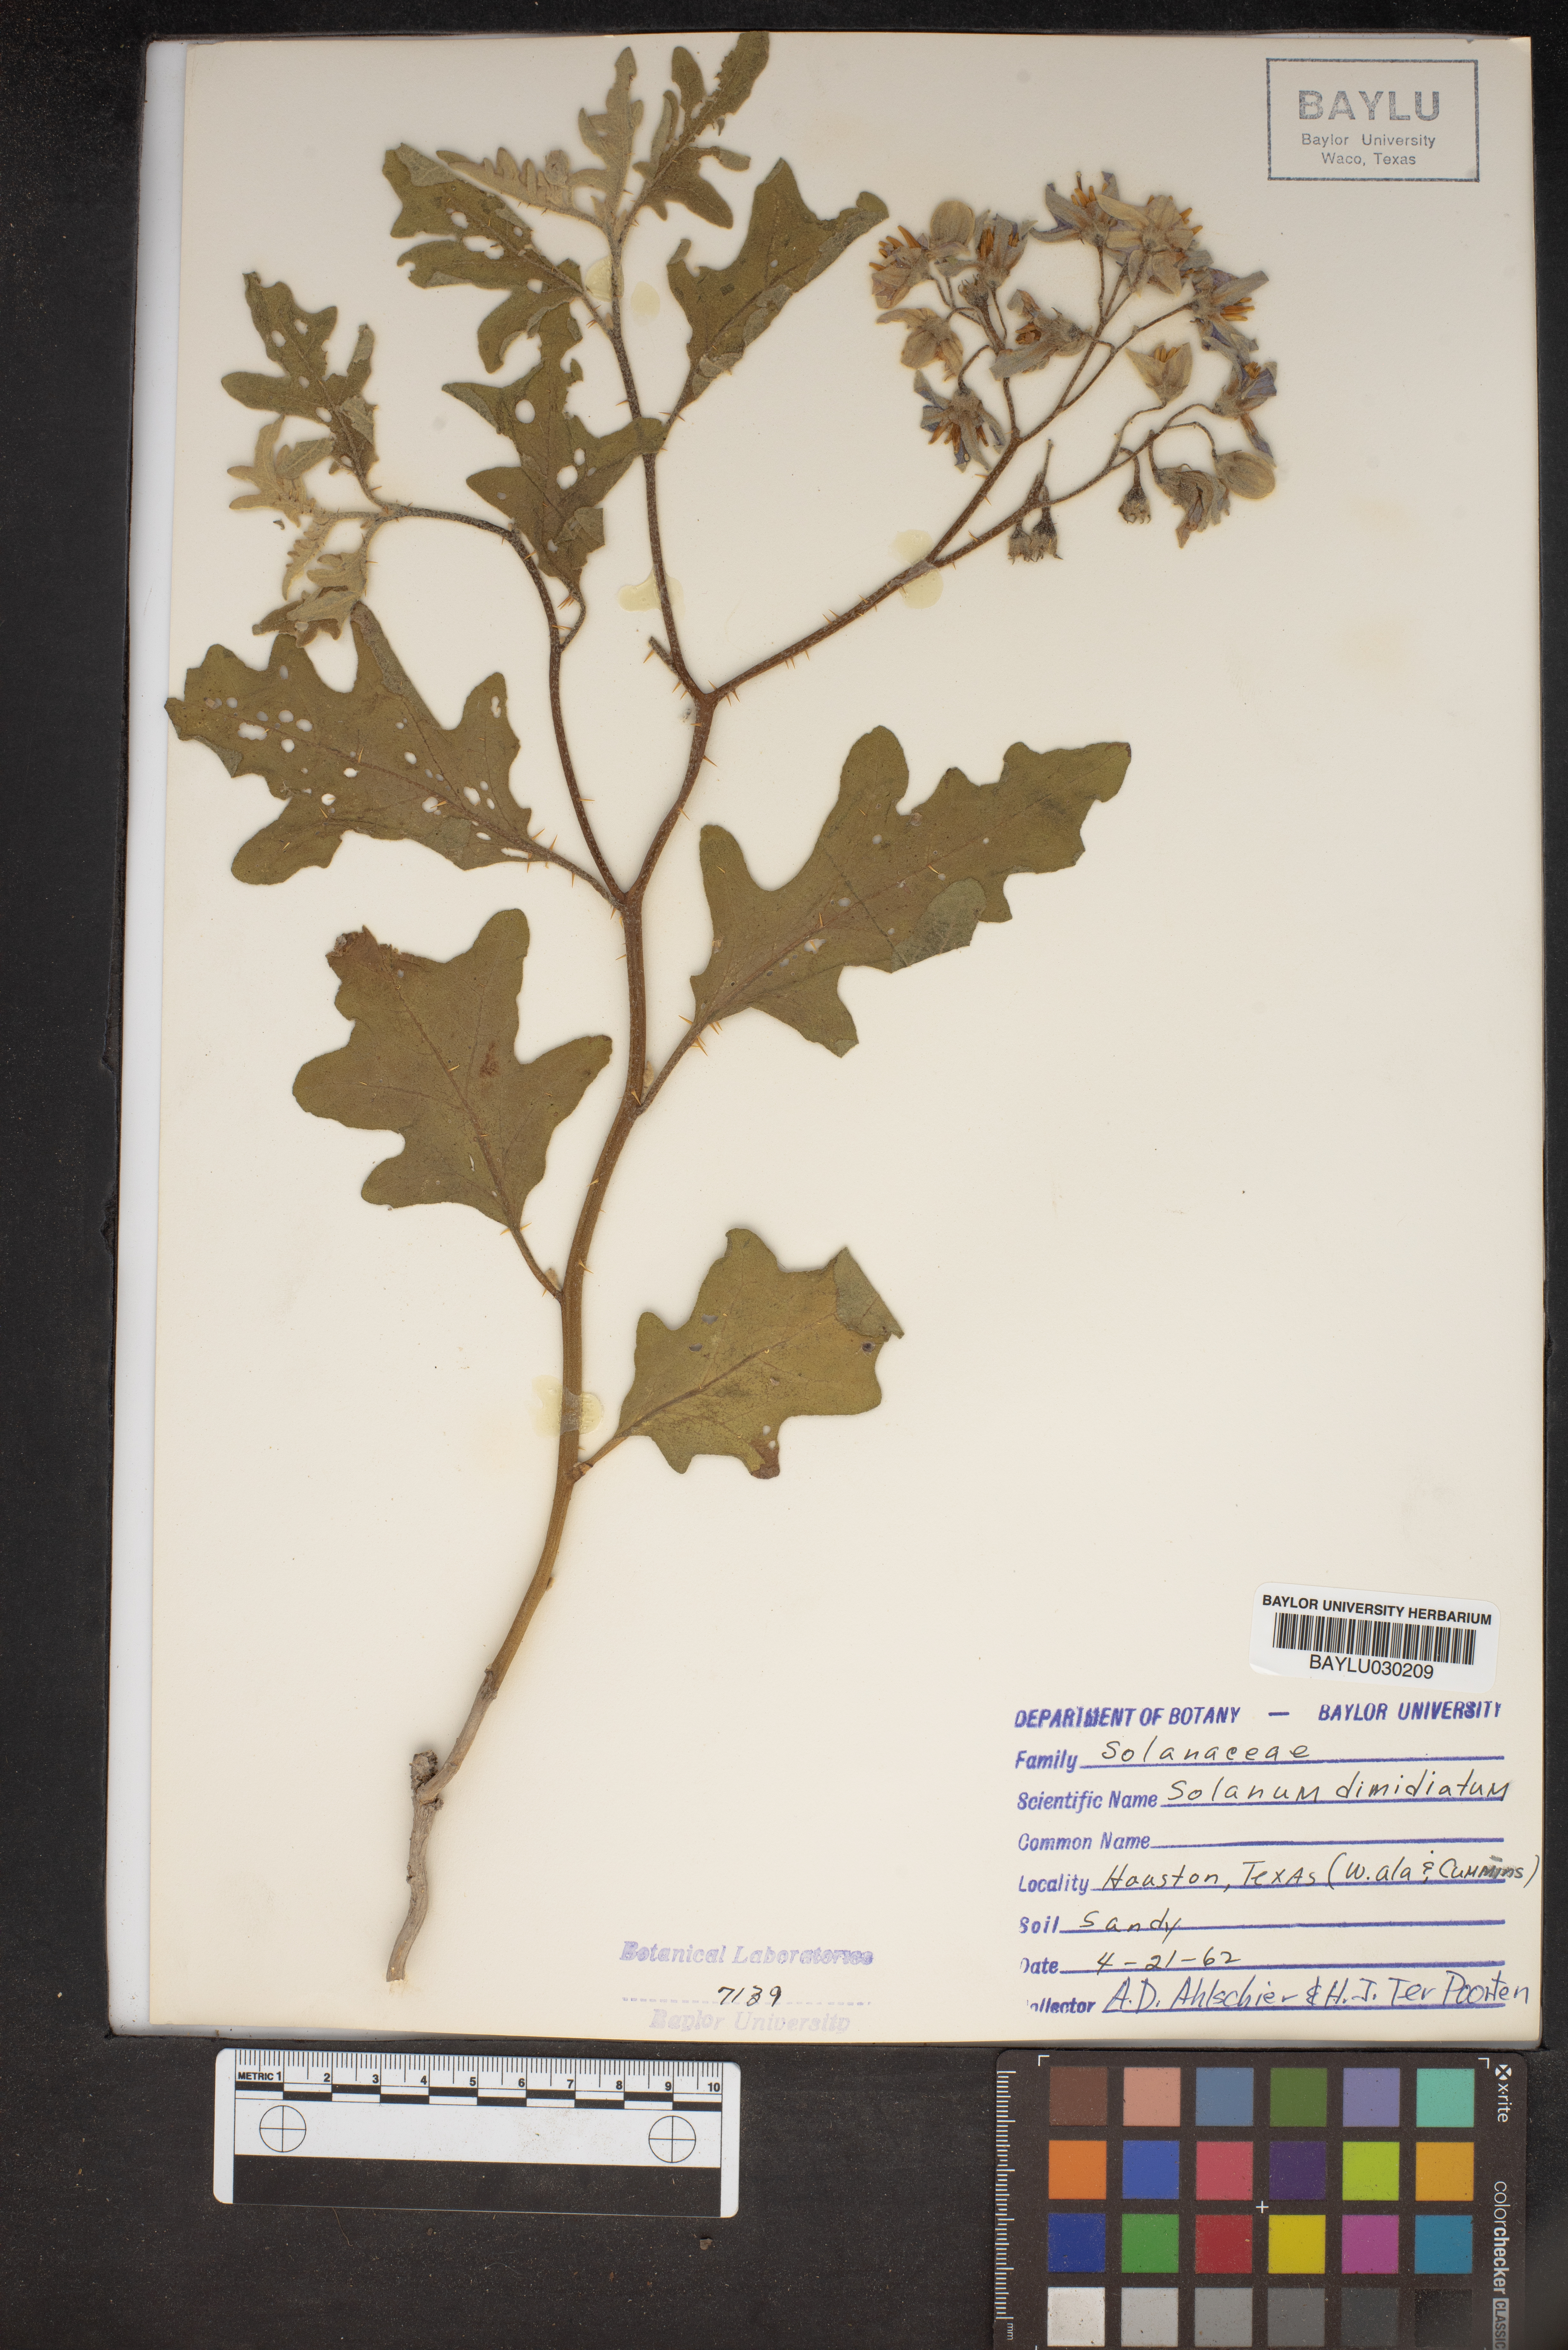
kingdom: Plantae
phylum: Tracheophyta
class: Magnoliopsida
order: Solanales
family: Solanaceae
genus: Solanum
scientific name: Solanum dimidiatum
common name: Carolina horse-nettle
